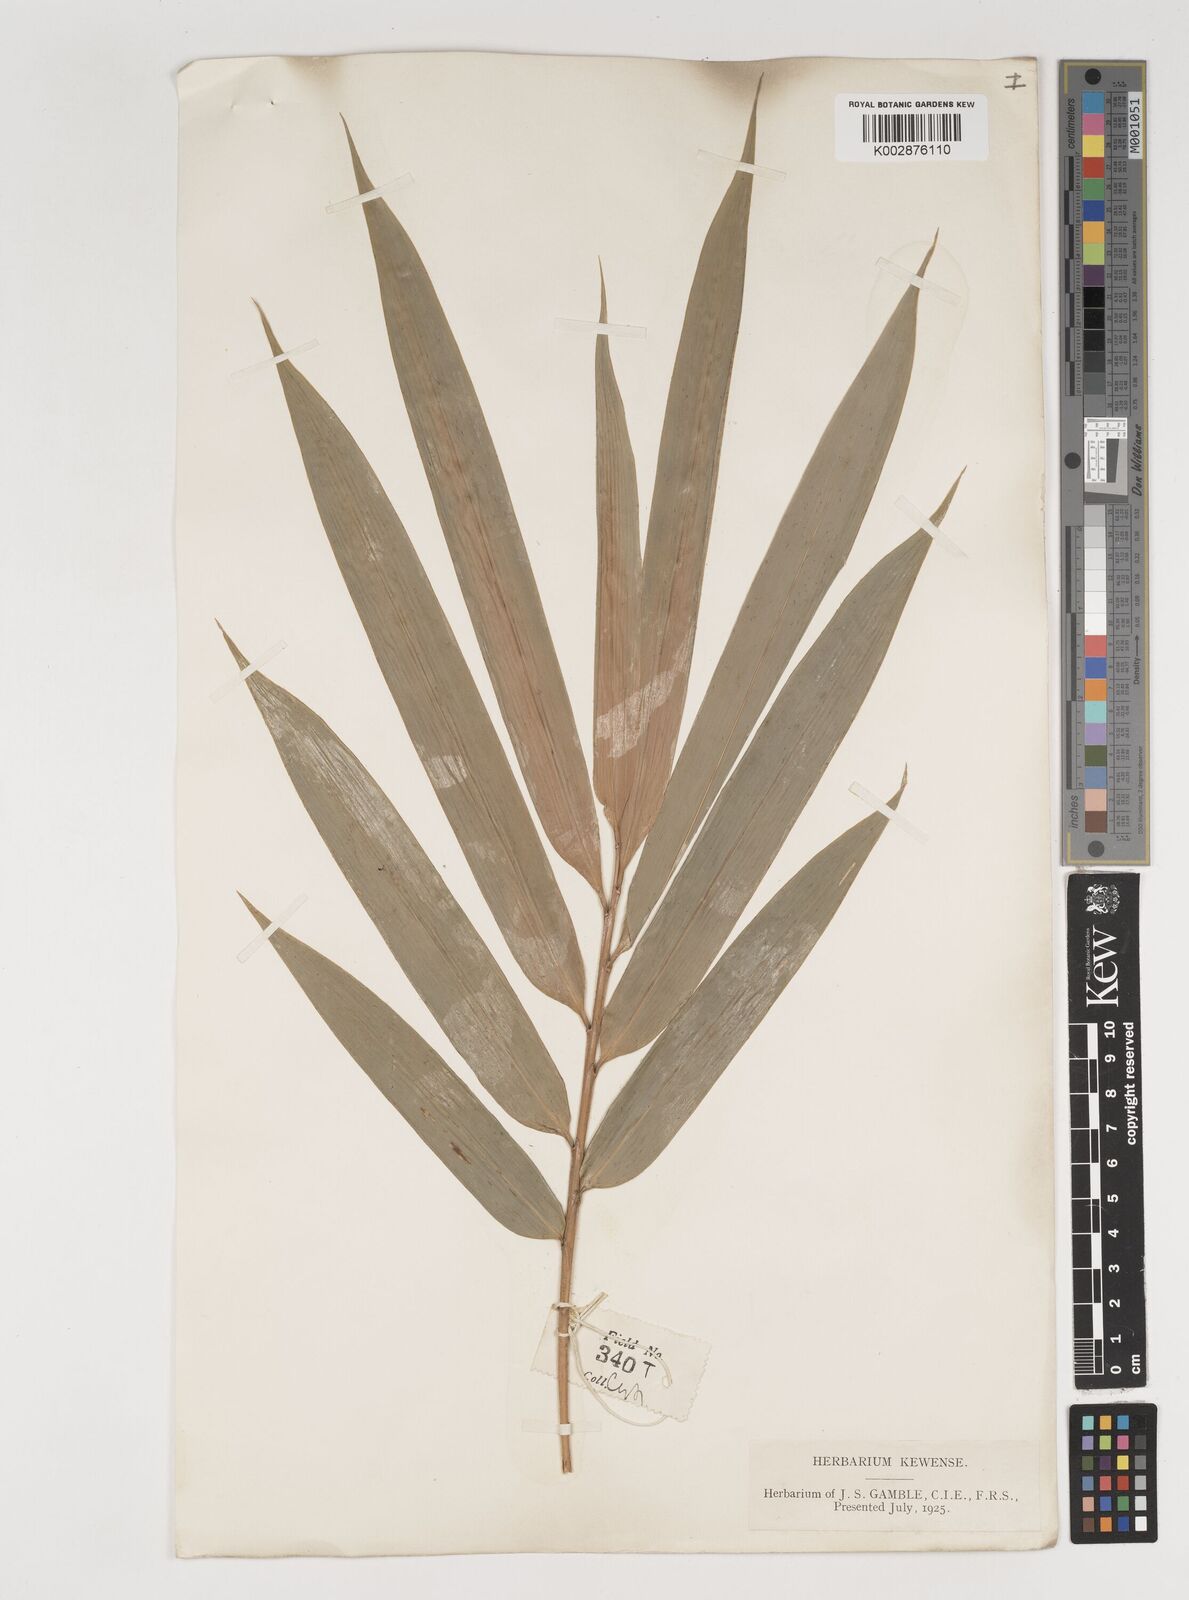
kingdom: Plantae
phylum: Tracheophyta
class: Liliopsida
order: Poales
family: Poaceae
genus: Bambusa
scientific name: Bambusa affinis
